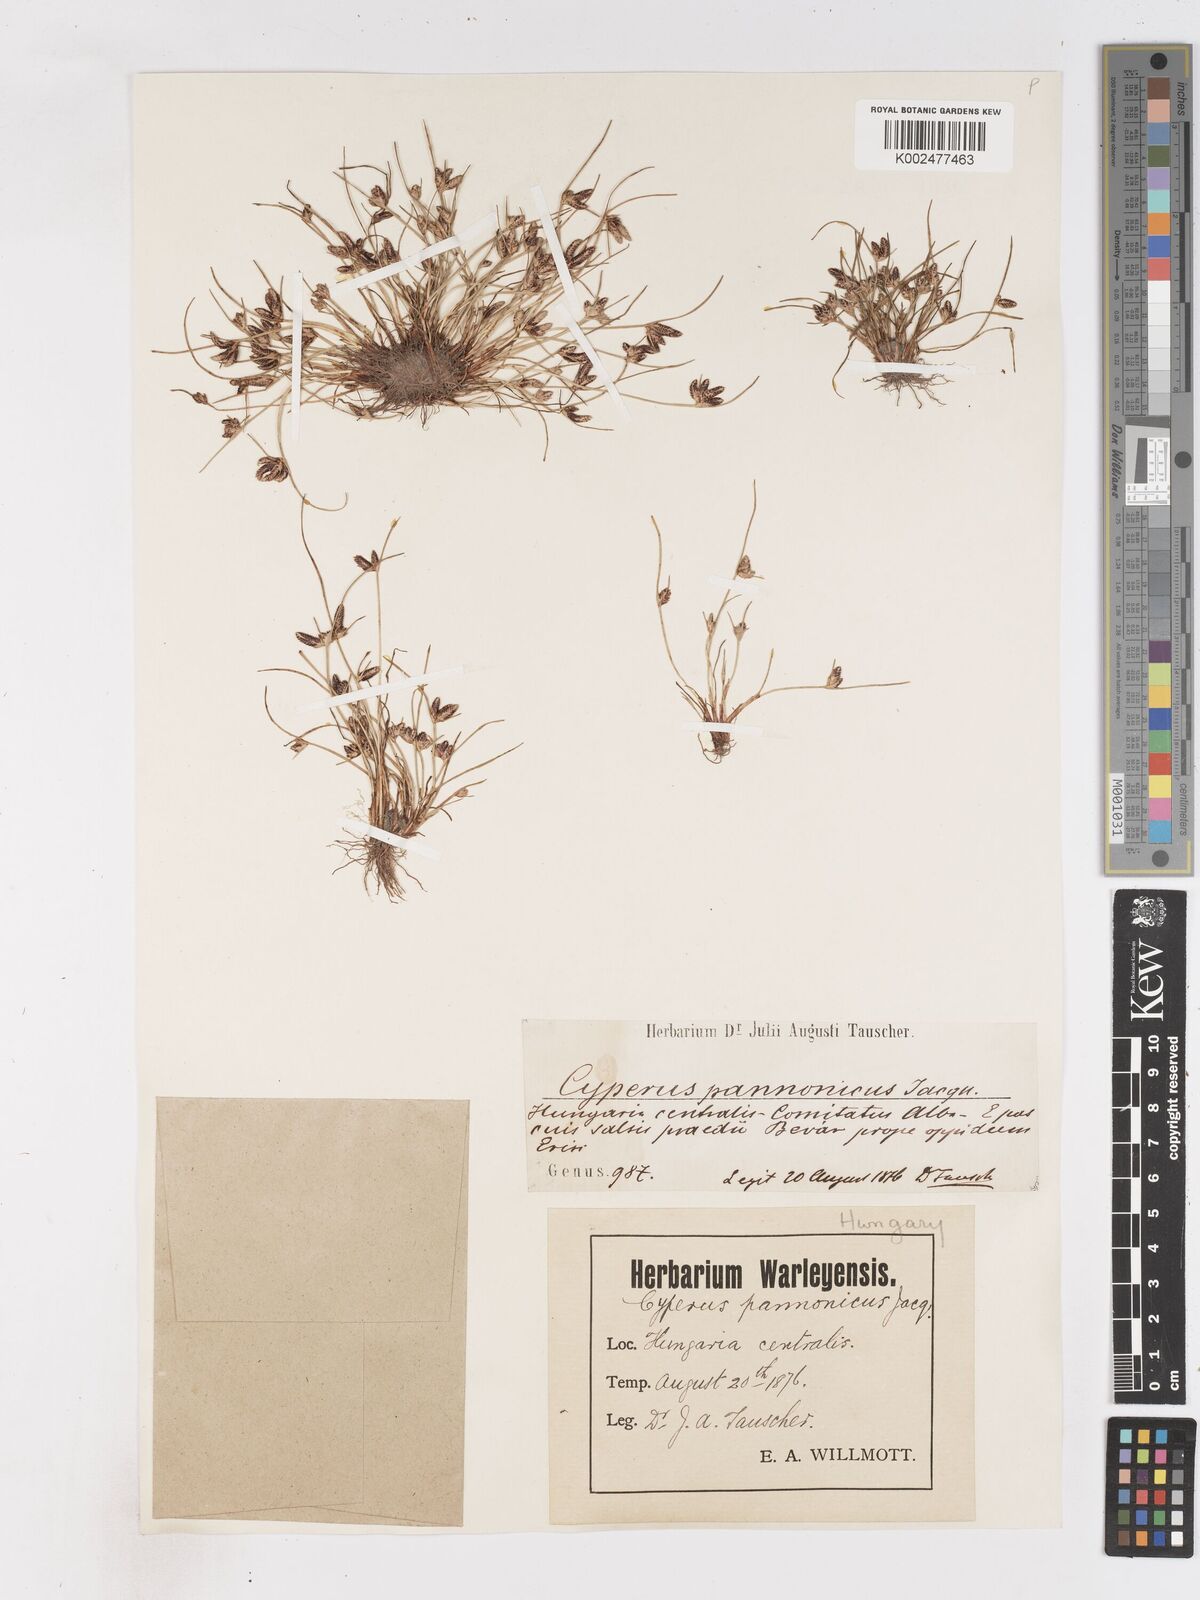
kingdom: Plantae
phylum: Tracheophyta
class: Liliopsida
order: Poales
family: Cyperaceae
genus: Cyperus
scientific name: Cyperus pannonicus
